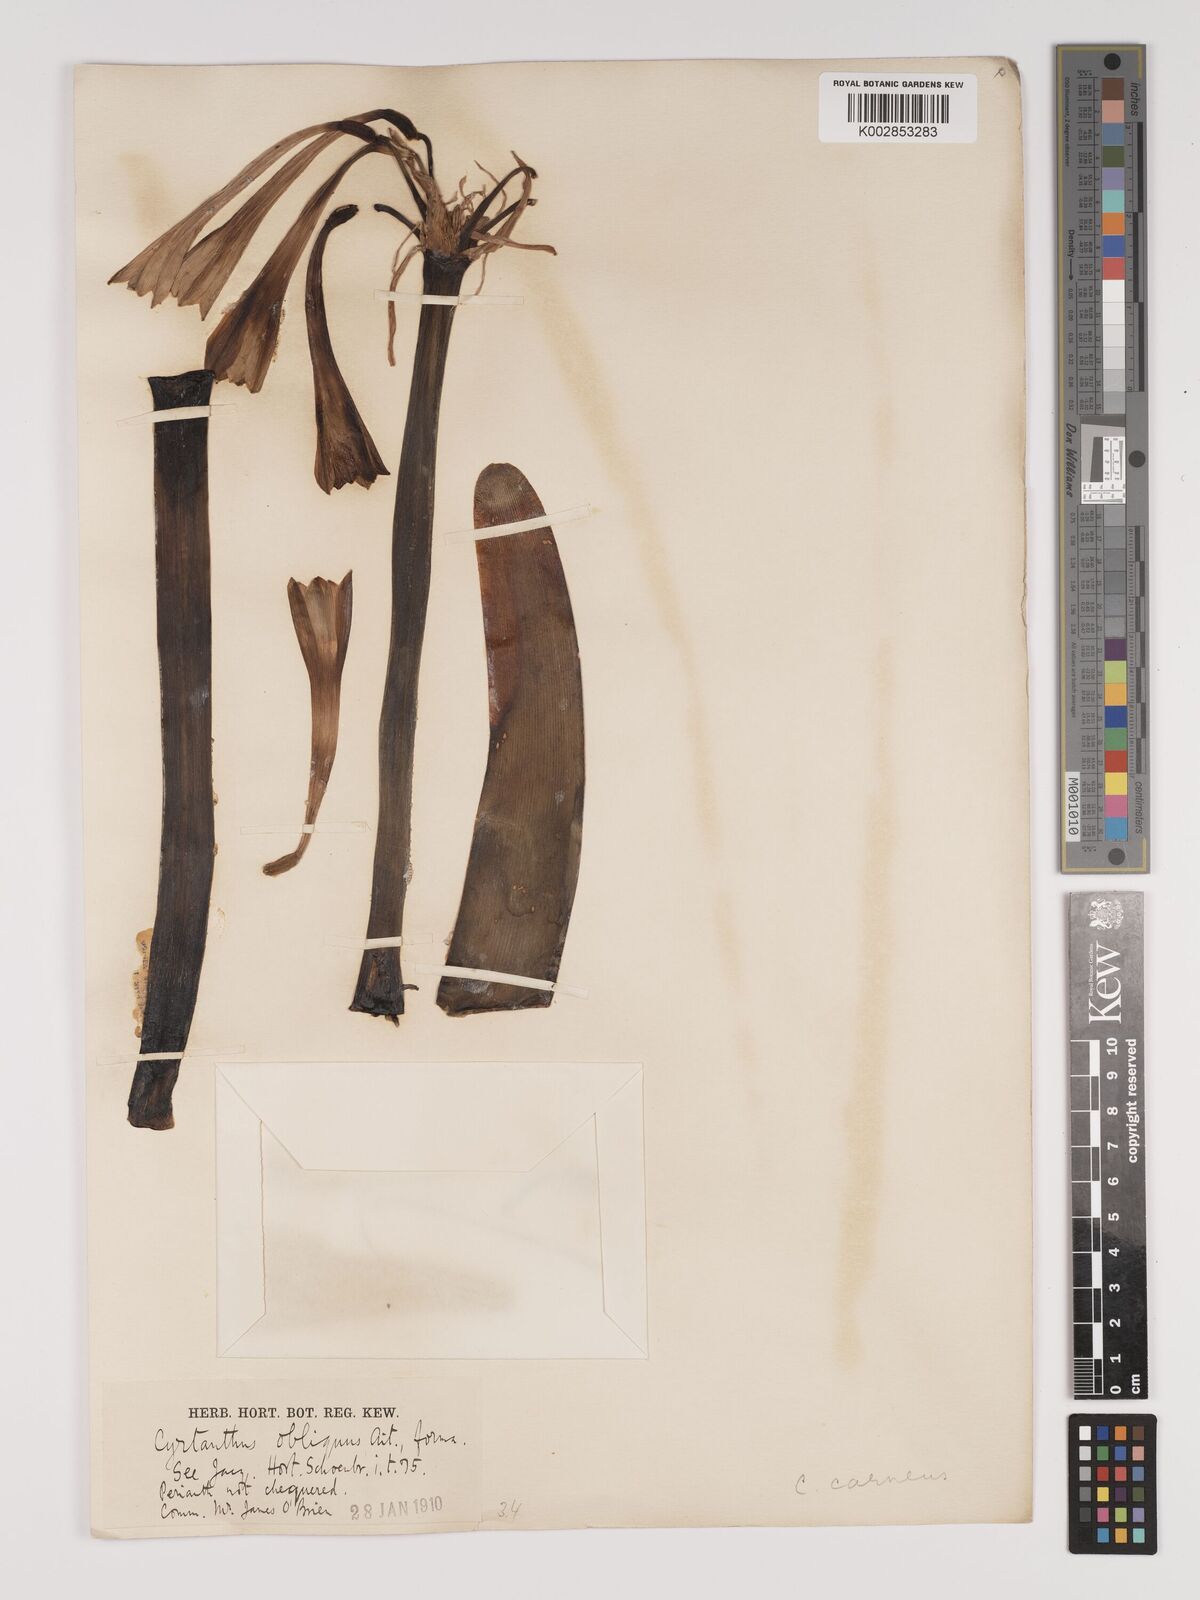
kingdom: Plantae
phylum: Tracheophyta
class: Liliopsida
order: Asparagales
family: Amaryllidaceae
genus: Cyrtanthus
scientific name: Cyrtanthus carneus
